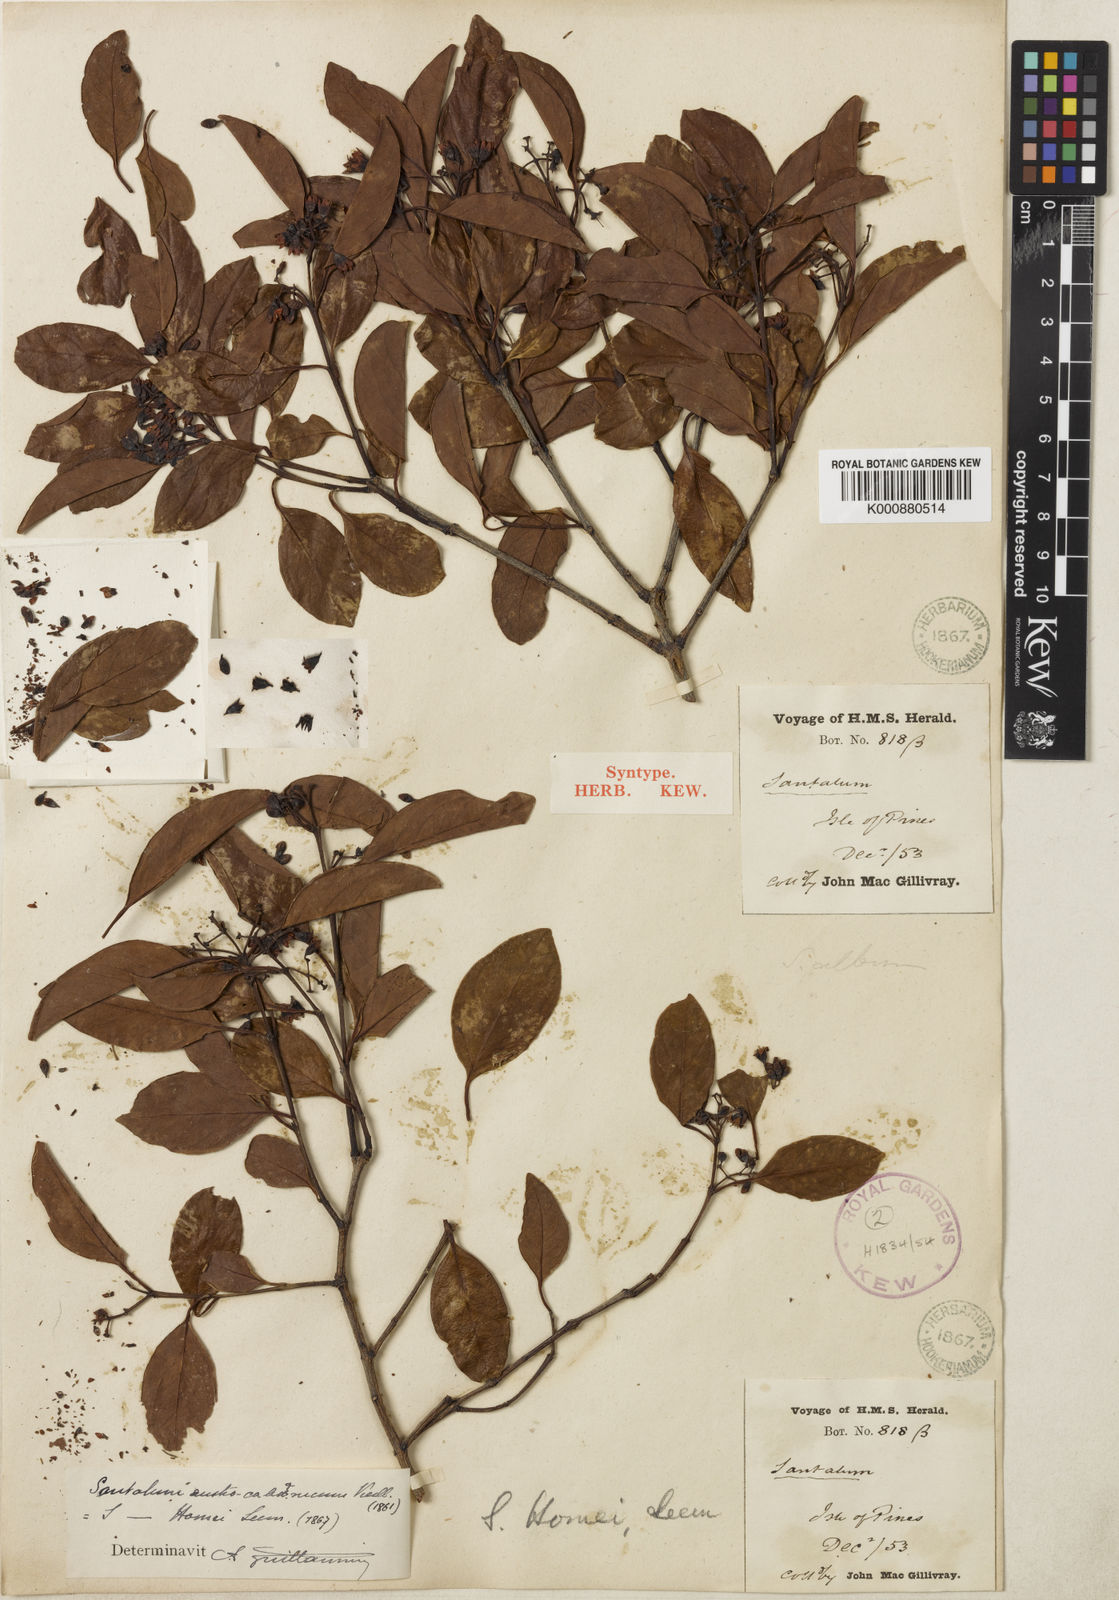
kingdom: Plantae
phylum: Tracheophyta
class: Magnoliopsida
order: Santalales
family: Santalaceae
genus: Santalum
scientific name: Santalum austrocaledonicum
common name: Coral sea sandalwood
